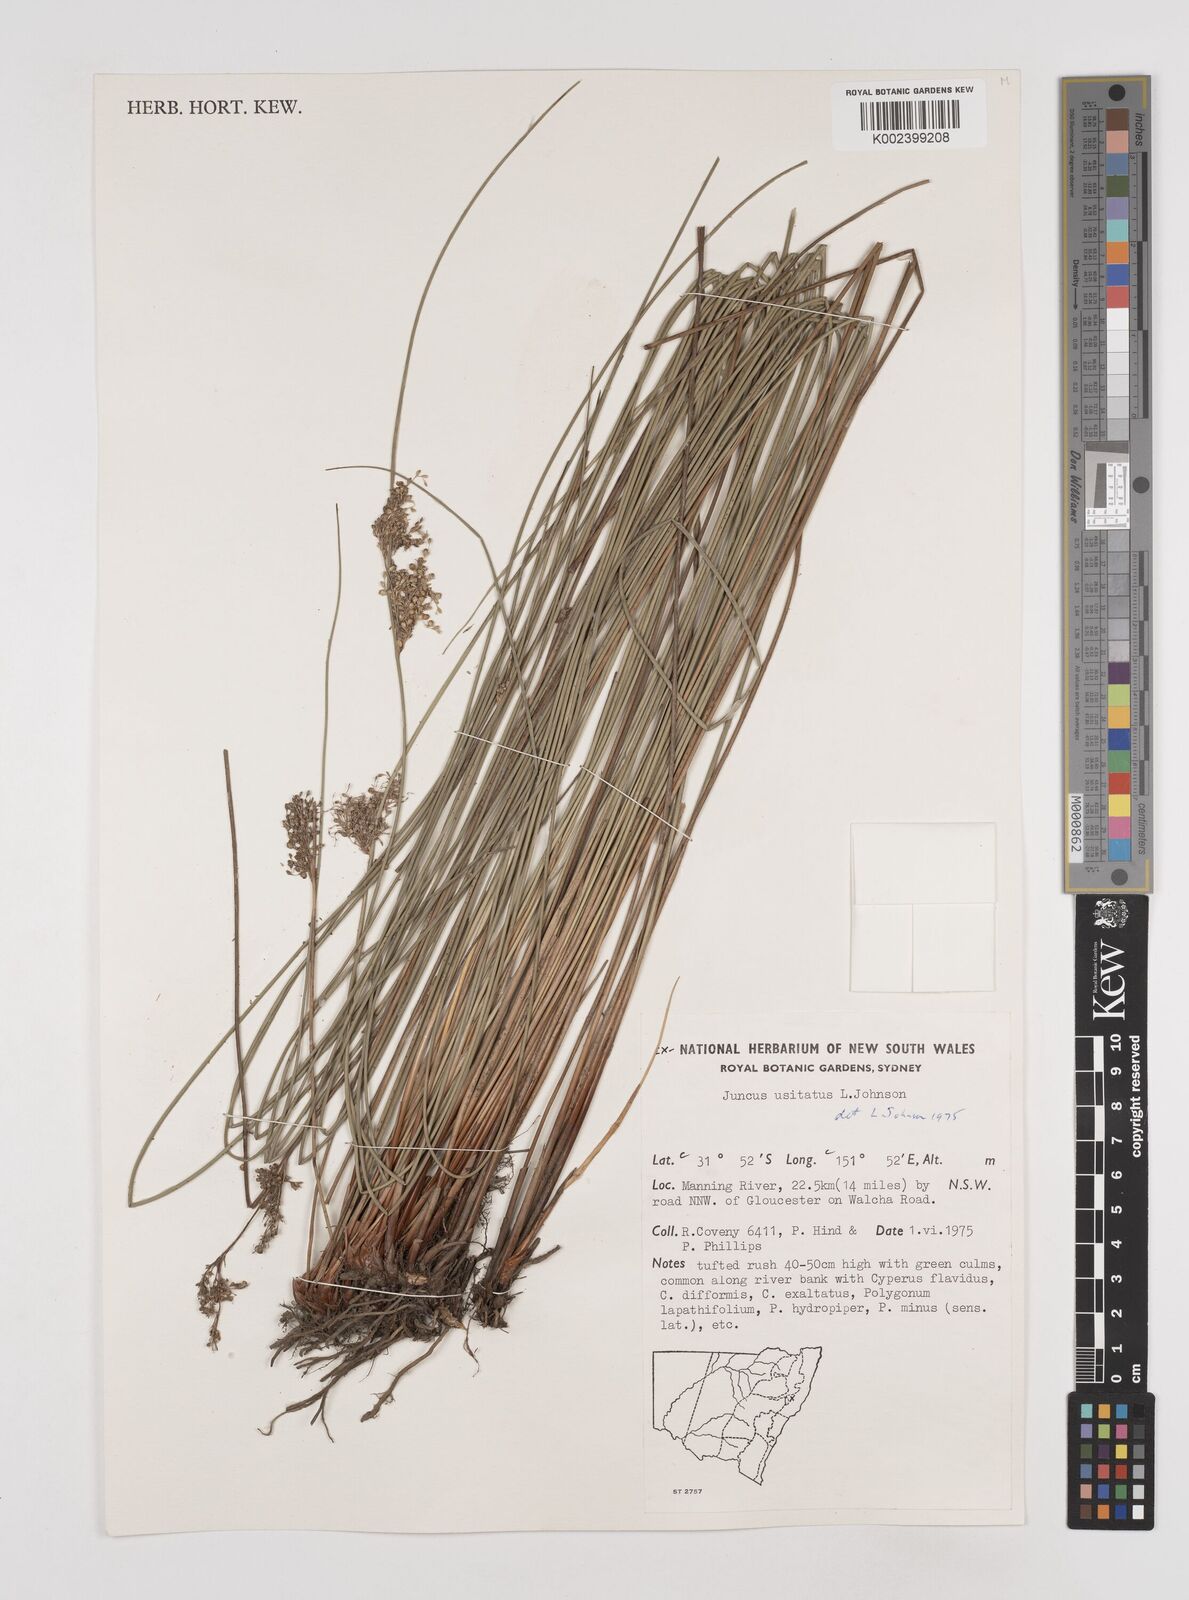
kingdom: Plantae
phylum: Tracheophyta
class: Liliopsida
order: Poales
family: Juncaceae
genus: Juncus
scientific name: Juncus usitatus
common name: Rush
